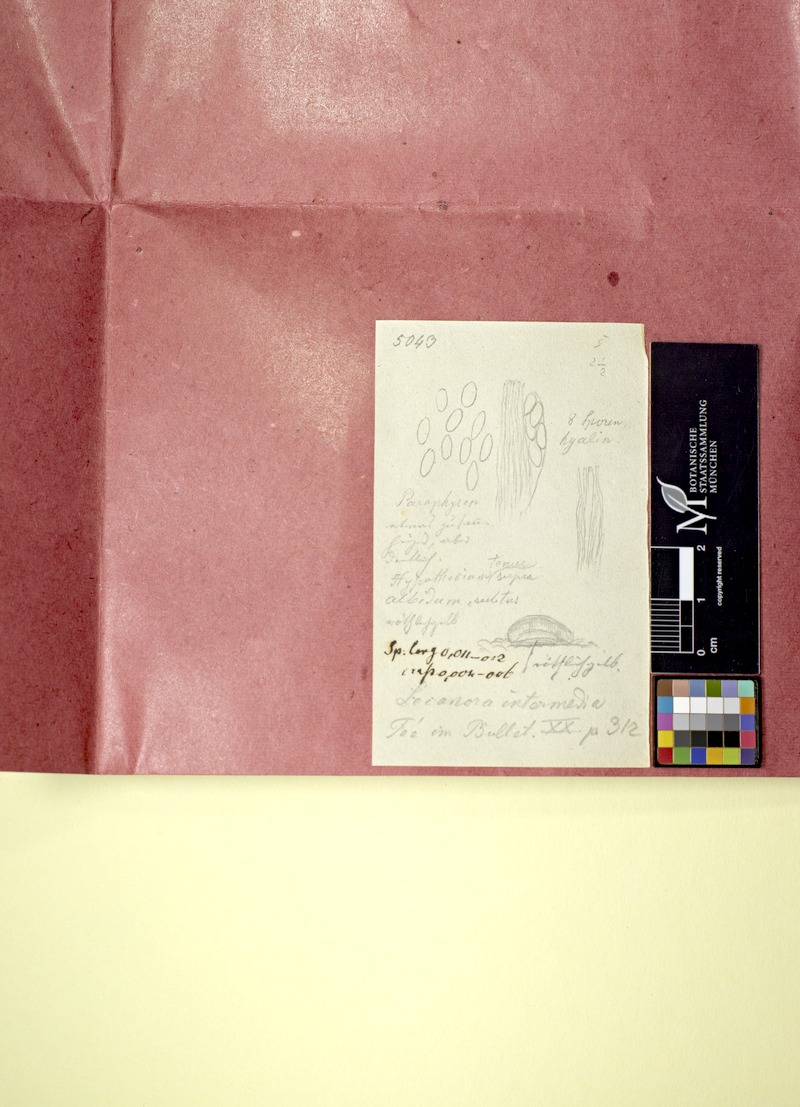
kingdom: Fungi
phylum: Ascomycota
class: Lecanoromycetes
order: Lecideales
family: Lecideaceae
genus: Lecidea
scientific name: Lecidea
